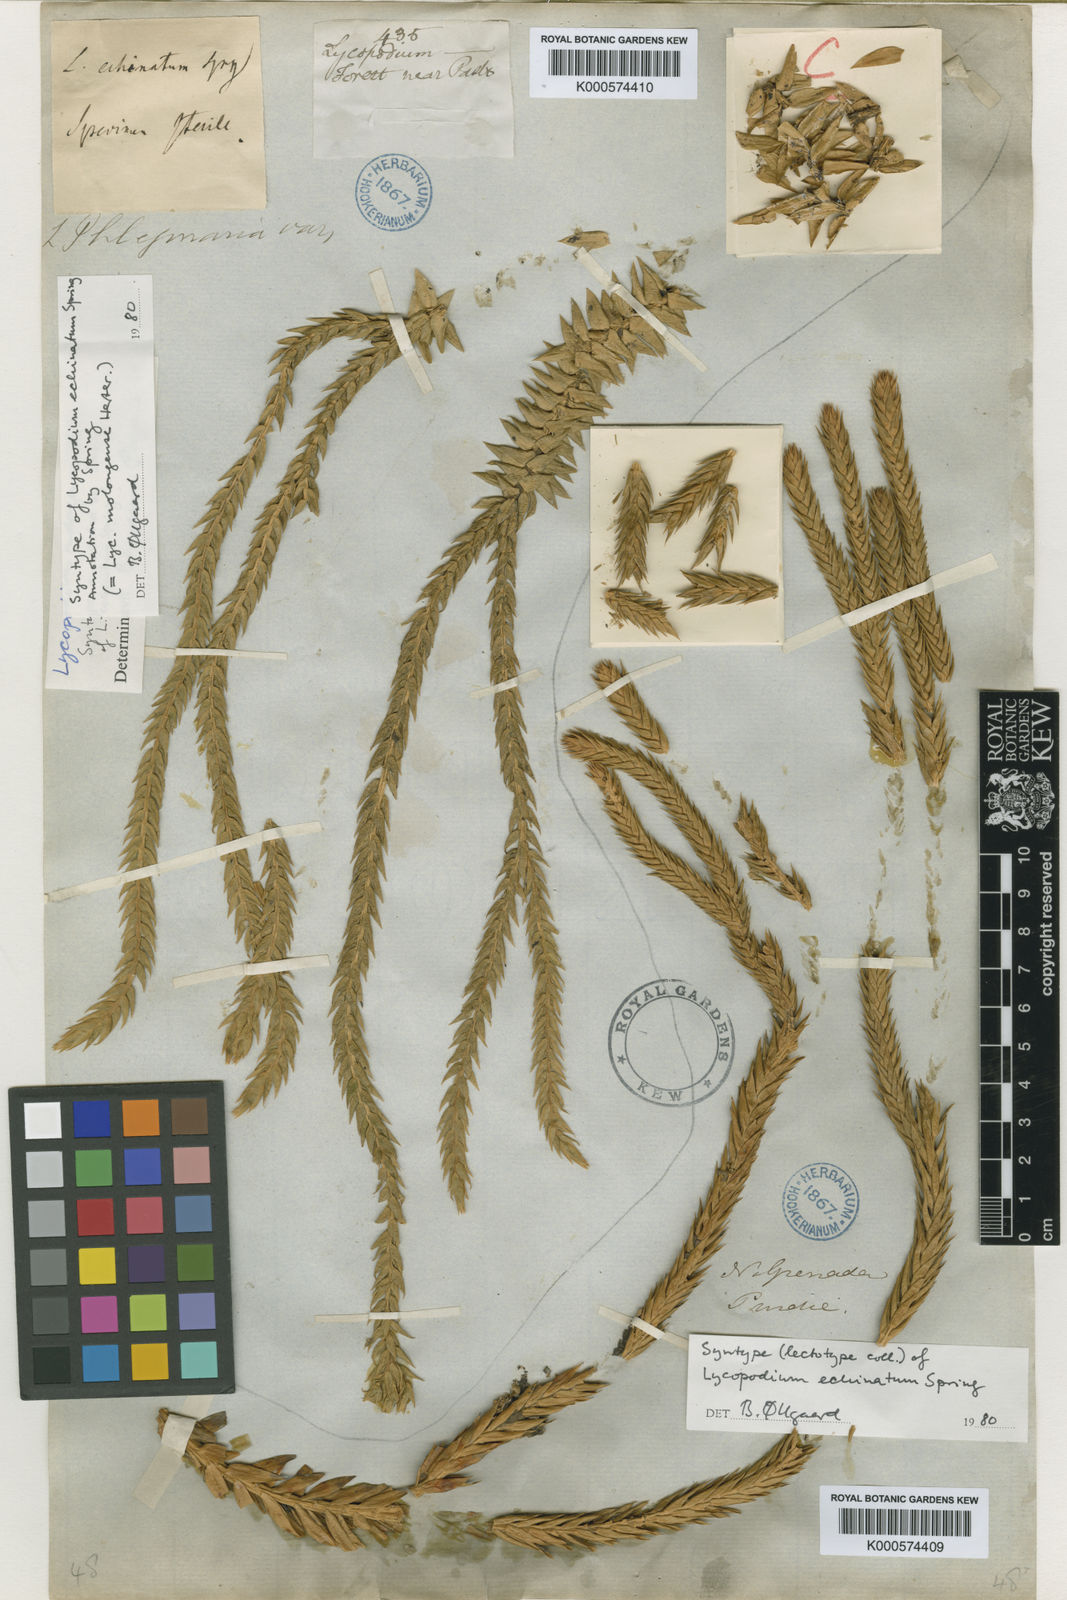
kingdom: Plantae
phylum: Tracheophyta
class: Lycopodiopsida
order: Lycopodiales
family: Lycopodiaceae
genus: Phlegmariurus
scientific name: Phlegmariurus echinatus
